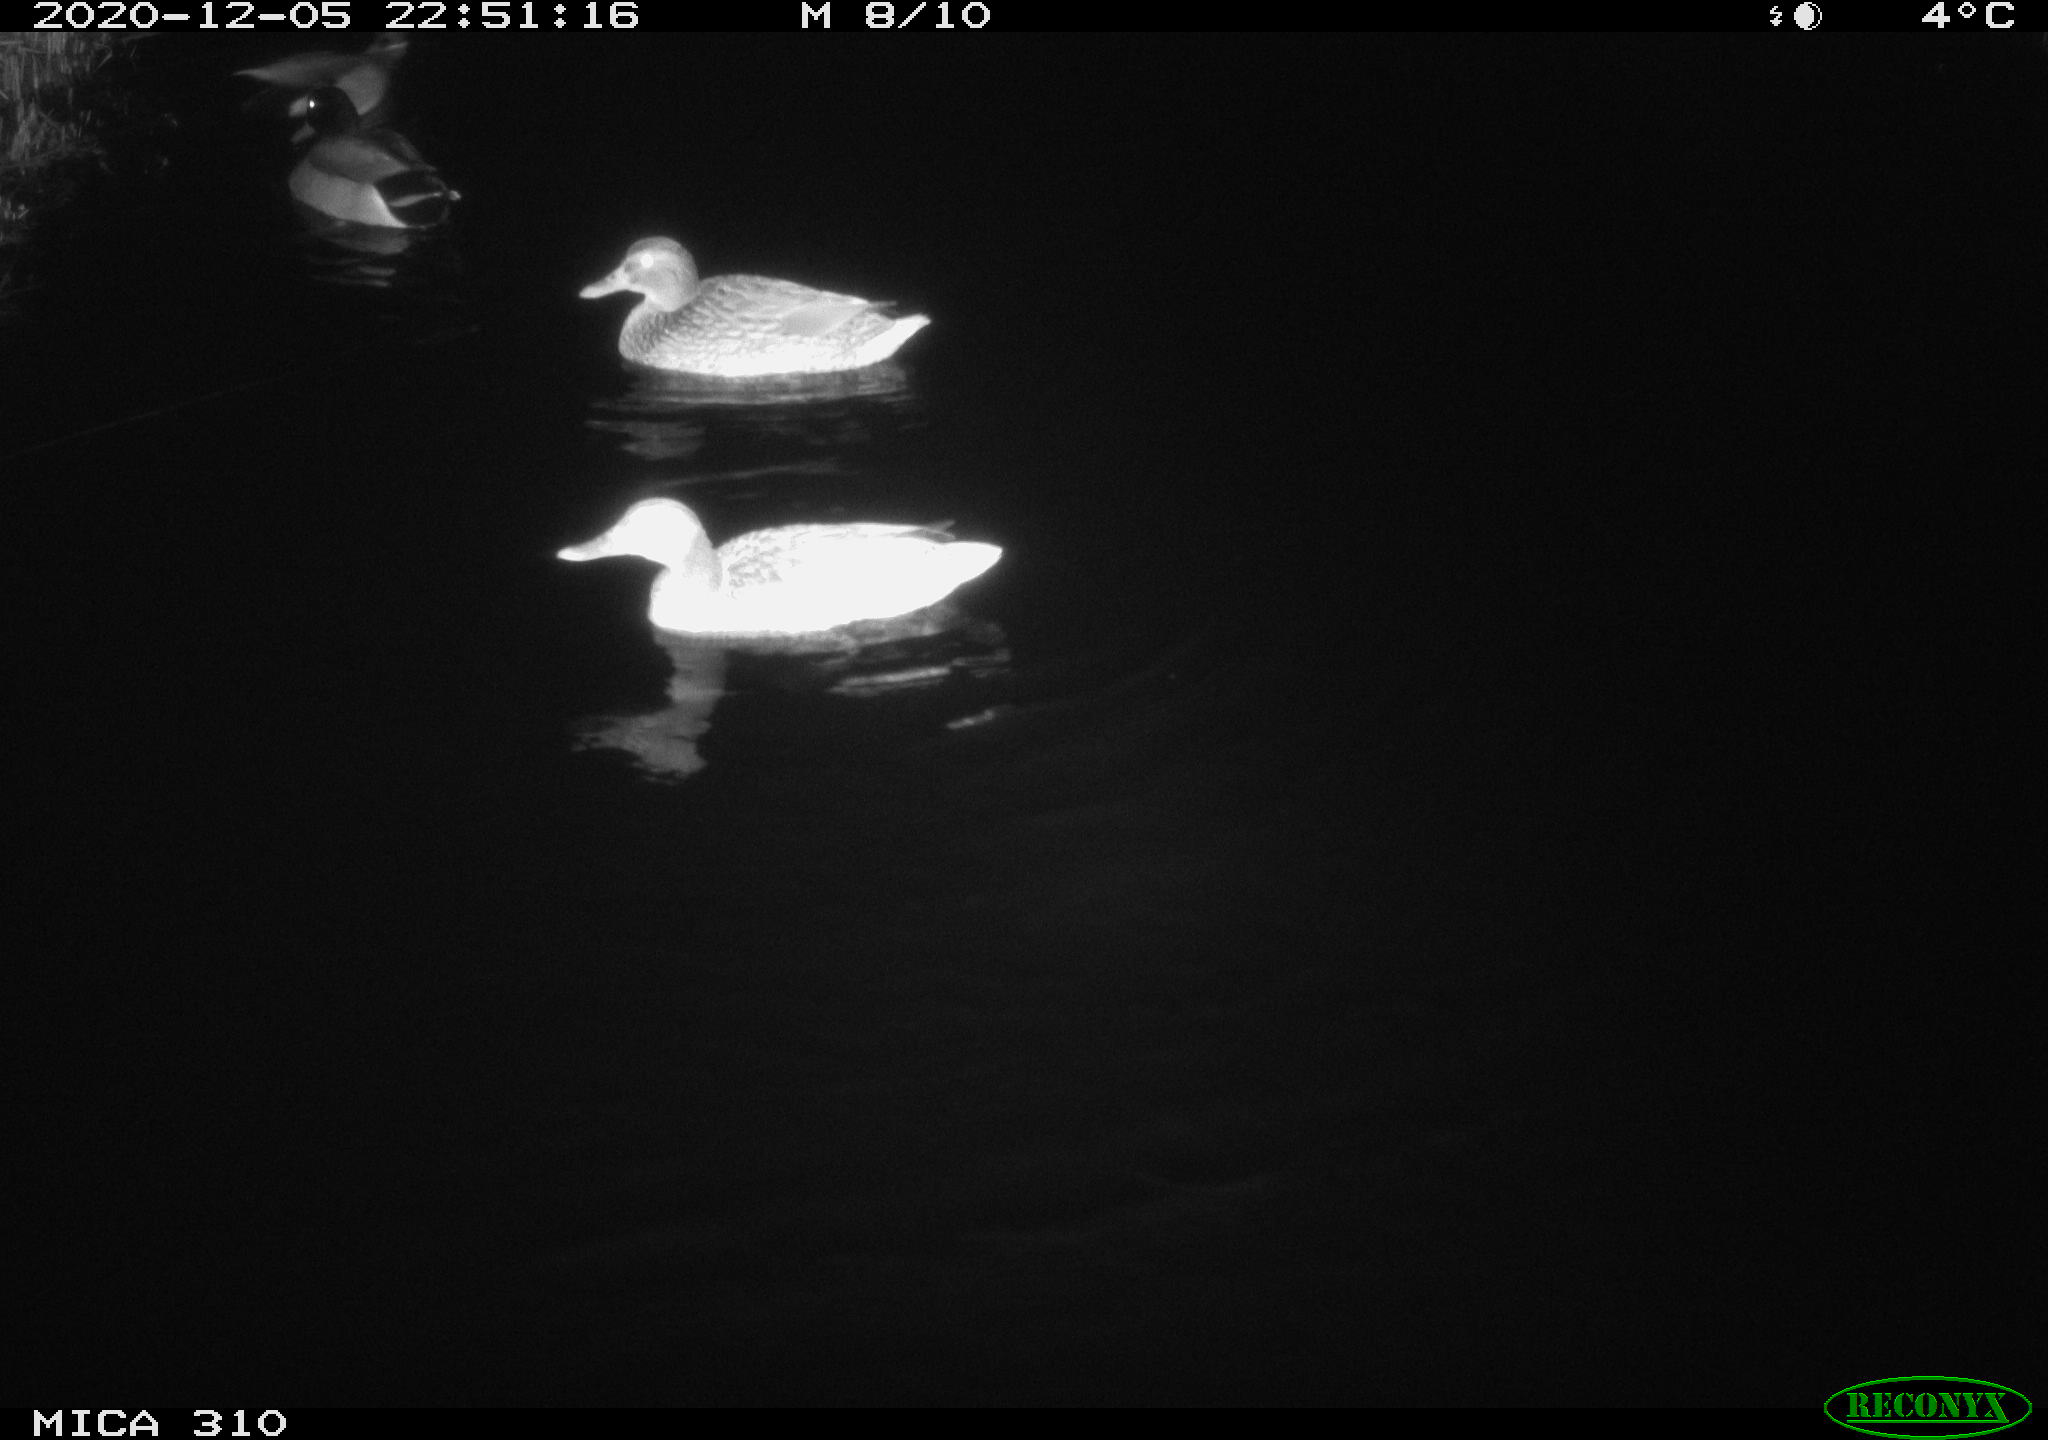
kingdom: Animalia
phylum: Chordata
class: Aves
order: Anseriformes
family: Anatidae
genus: Anas
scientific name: Anas platyrhynchos
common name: Mallard
